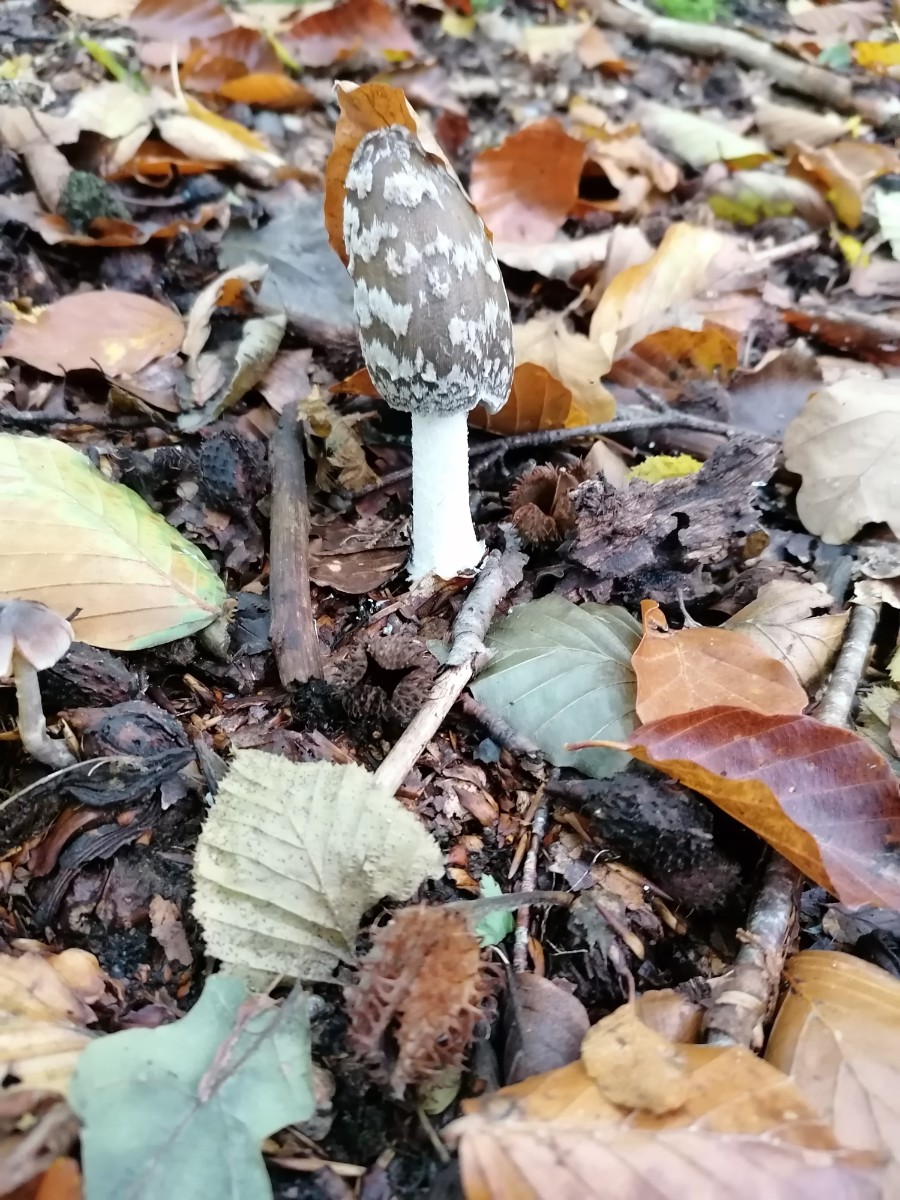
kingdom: Fungi
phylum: Basidiomycota
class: Agaricomycetes
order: Agaricales
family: Psathyrellaceae
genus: Coprinopsis
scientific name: Coprinopsis picacea
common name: skade-blækhat
